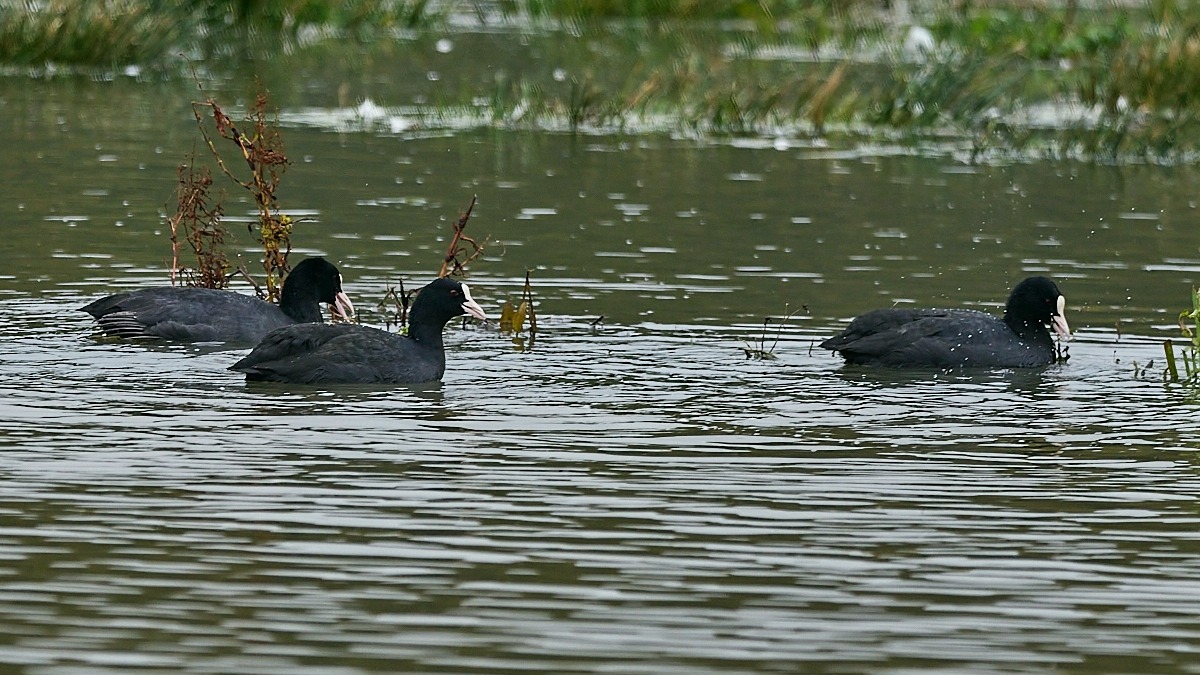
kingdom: Animalia
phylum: Chordata
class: Aves
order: Gruiformes
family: Rallidae
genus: Fulica
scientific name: Fulica atra
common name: Blishøne
